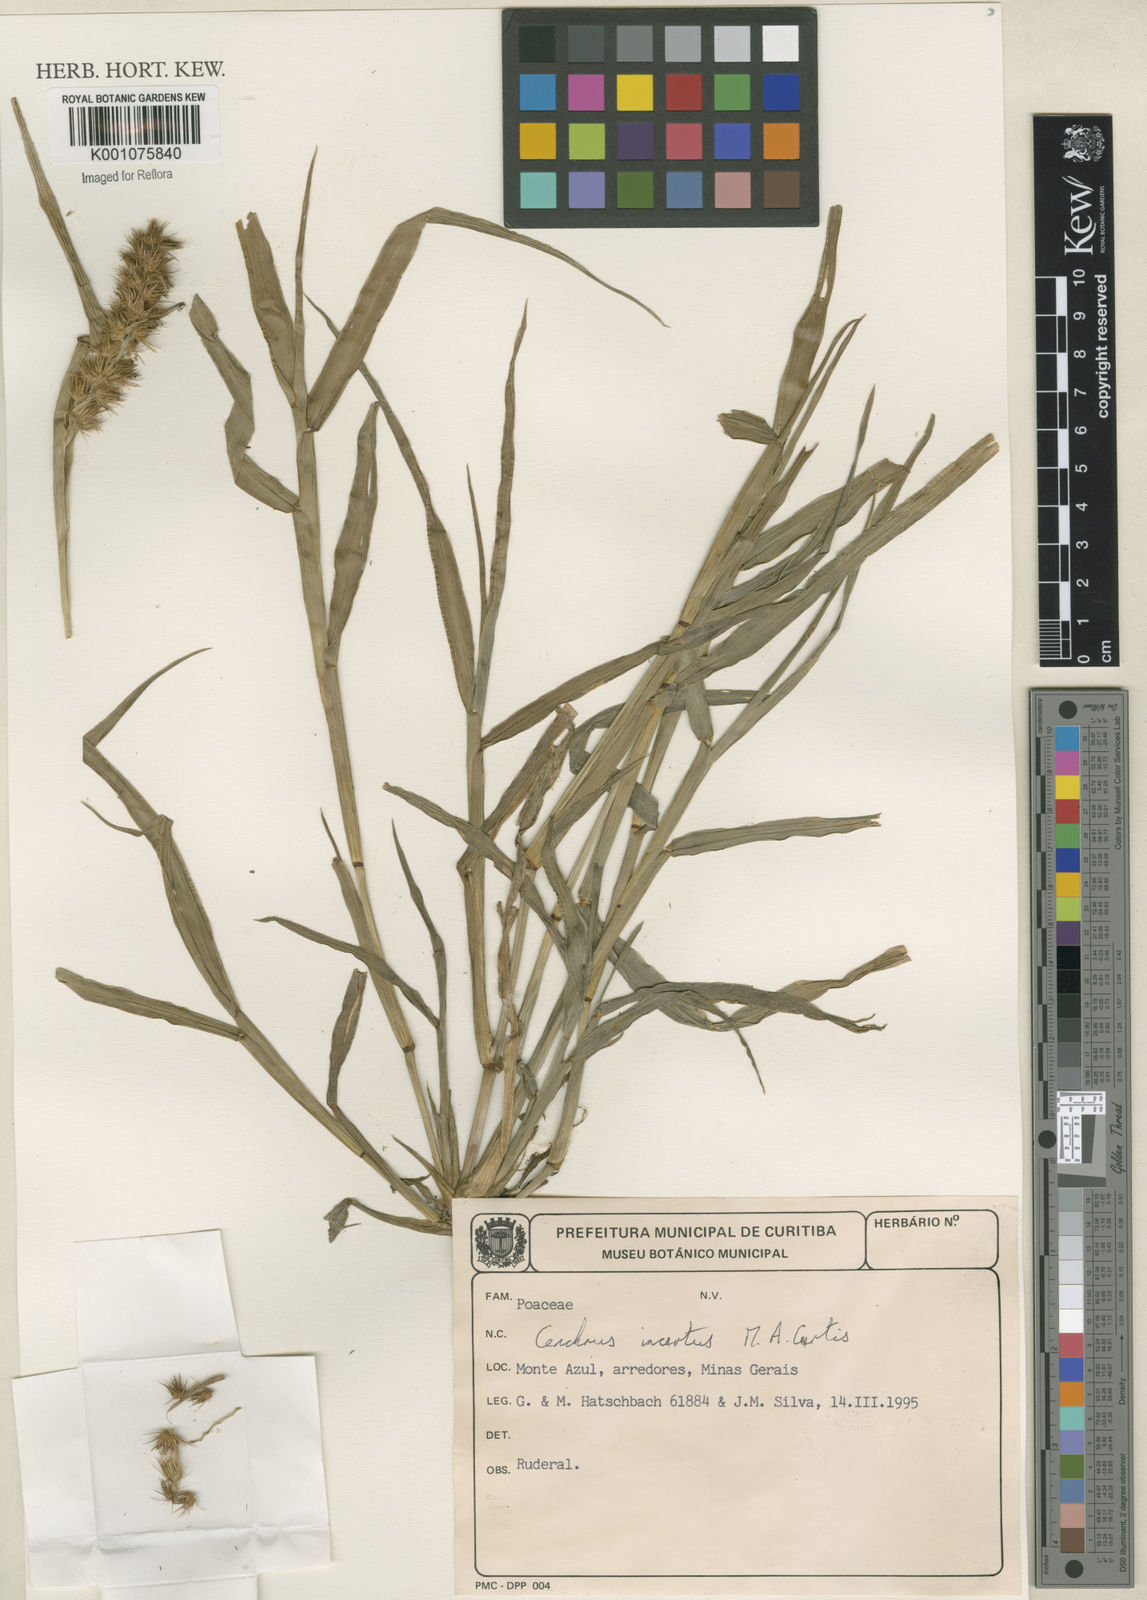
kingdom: Plantae
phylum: Tracheophyta
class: Liliopsida
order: Poales
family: Poaceae
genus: Cenchrus
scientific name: Cenchrus spinifex
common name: Coast sandbur
